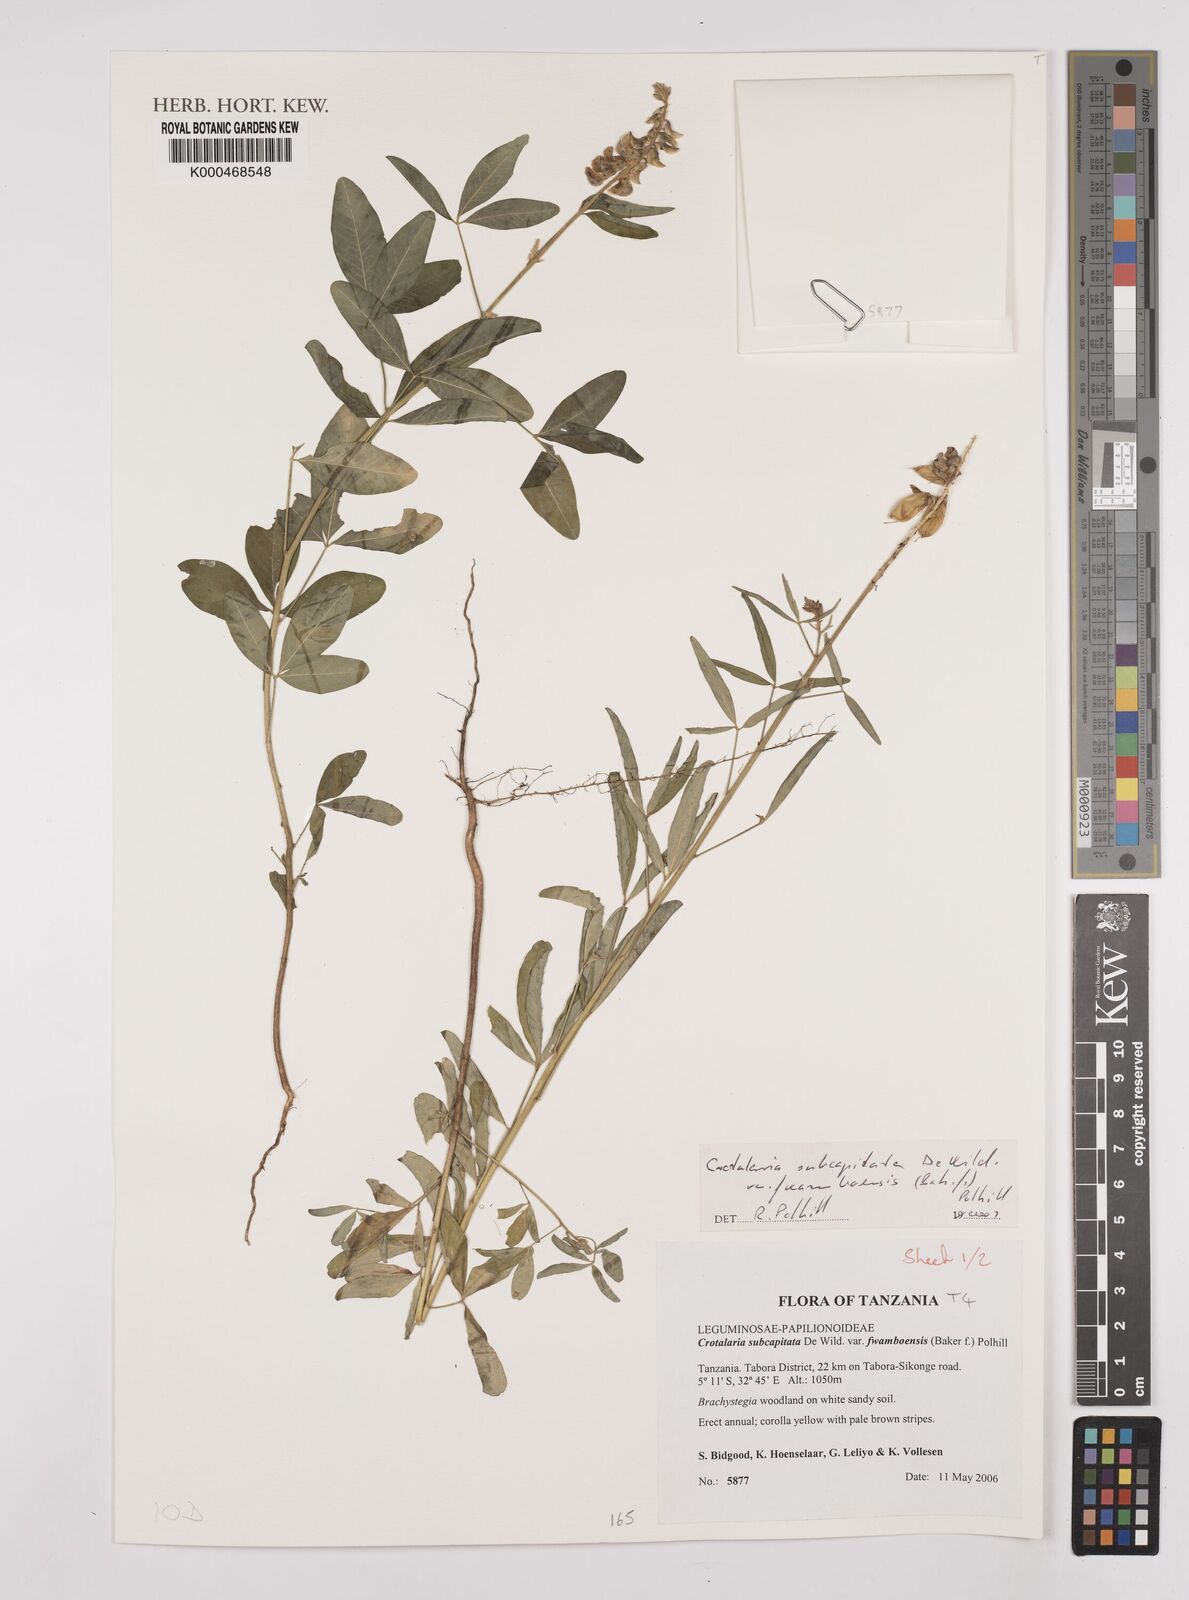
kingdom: Plantae
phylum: Tracheophyta
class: Magnoliopsida
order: Fabales
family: Fabaceae
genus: Crotalaria
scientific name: Crotalaria subcapitata
